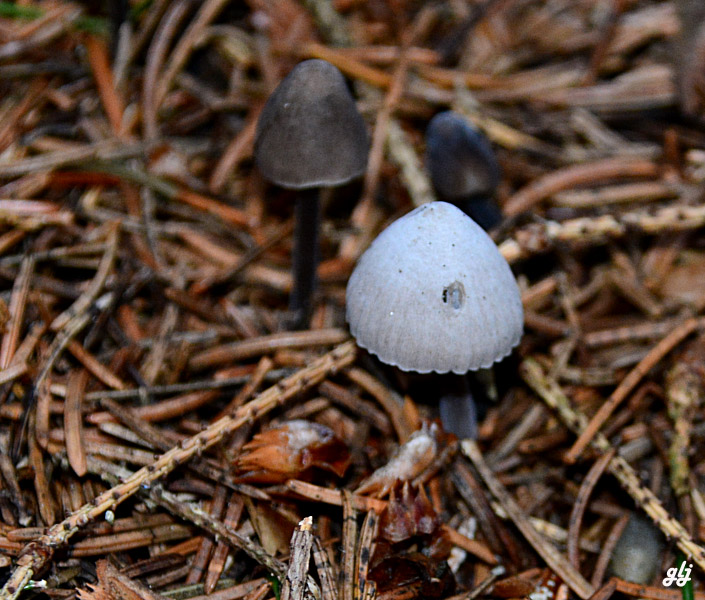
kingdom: Fungi
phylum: Basidiomycota
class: Agaricomycetes
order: Agaricales
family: Mycenaceae
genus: Mycena
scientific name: Mycena
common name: huesvamp
